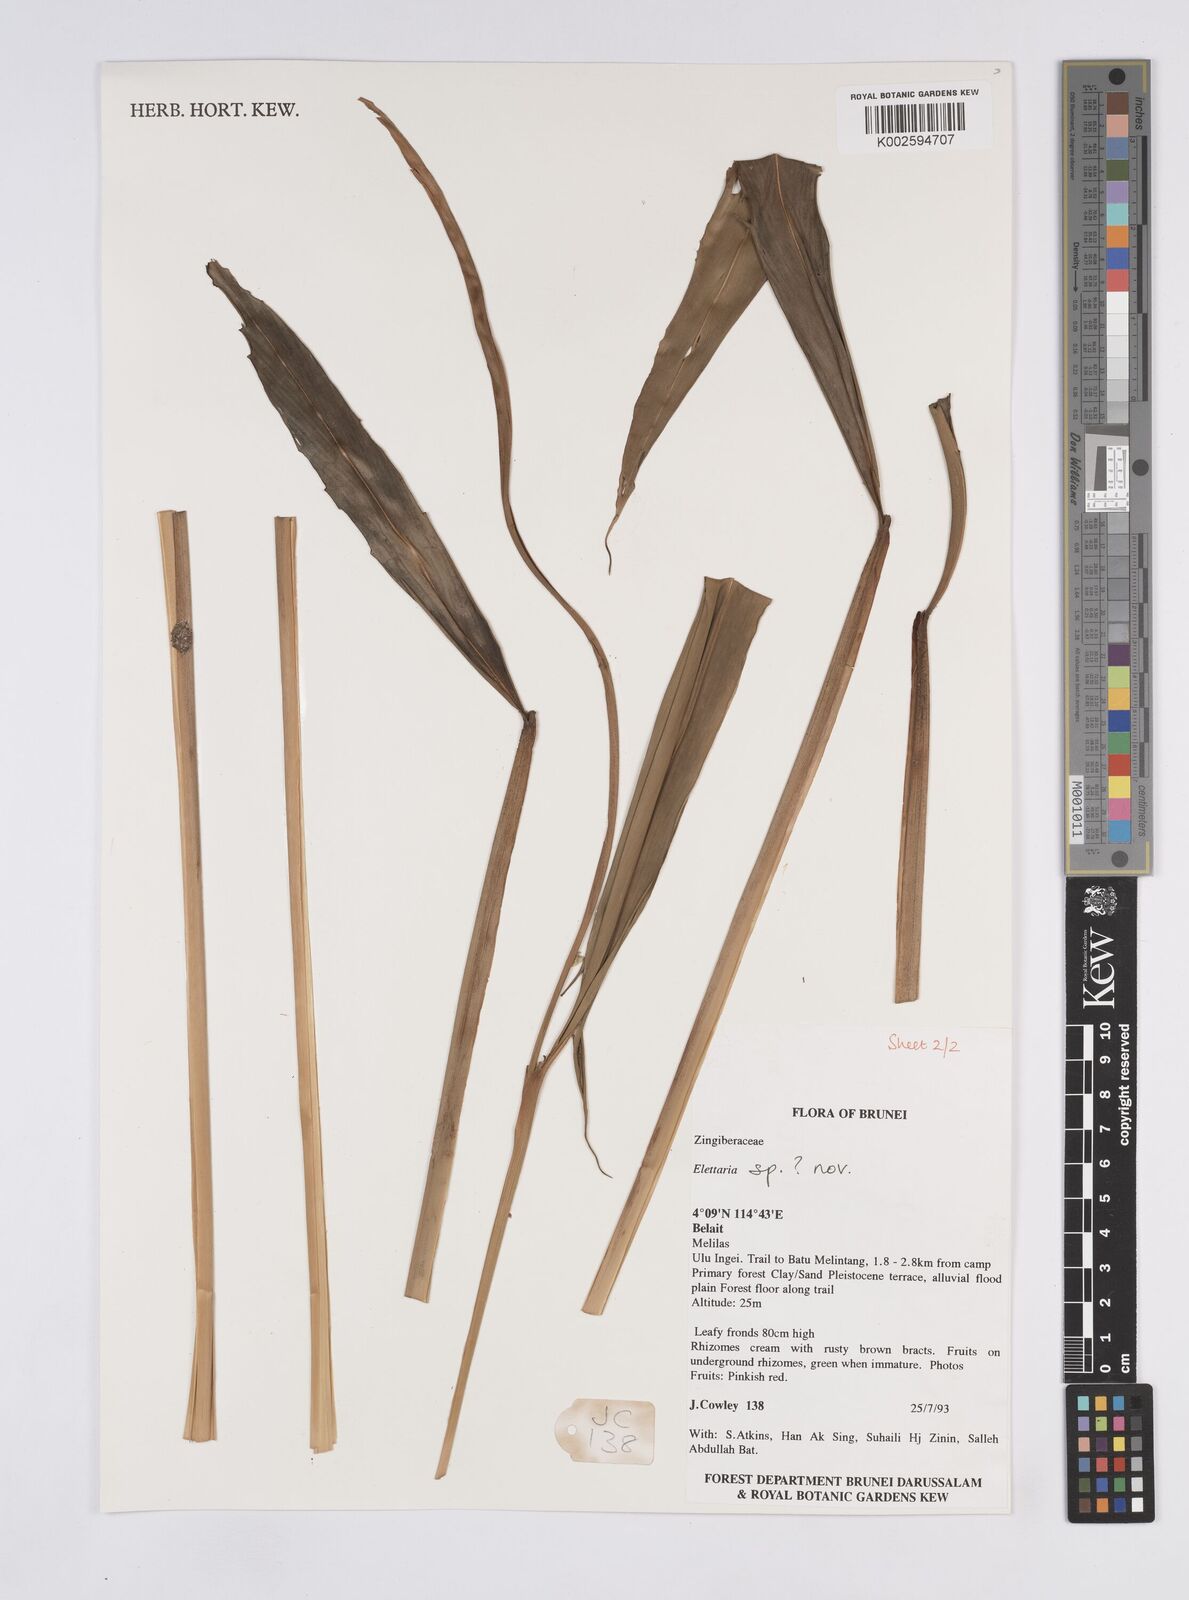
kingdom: Plantae
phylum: Tracheophyta
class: Liliopsida
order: Zingiberales
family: Zingiberaceae
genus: Elettaria
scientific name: Elettaria
